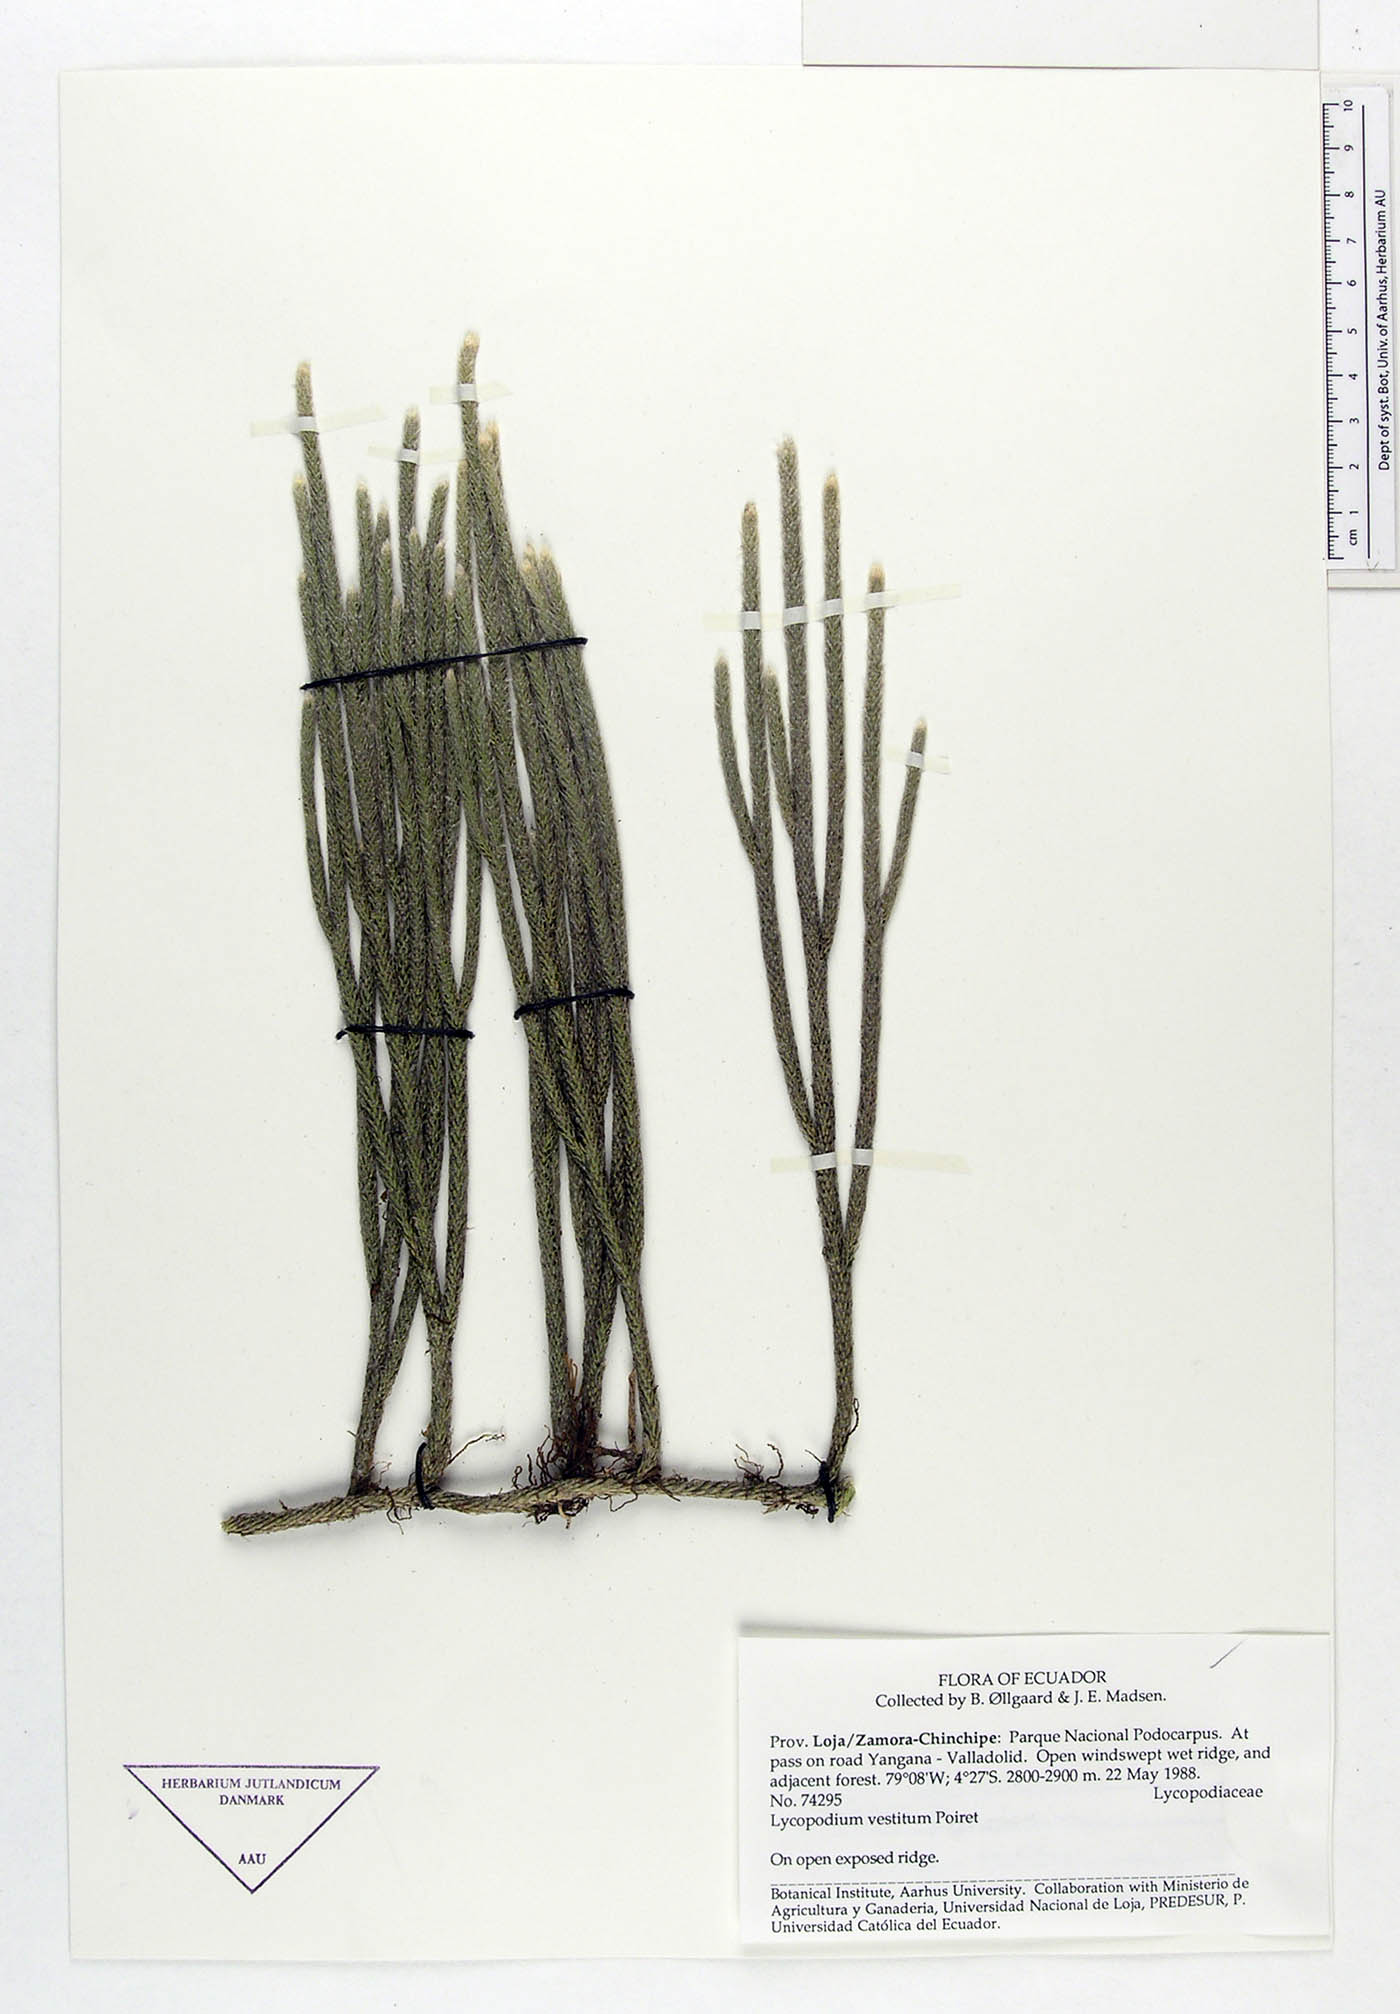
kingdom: Plantae
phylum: Tracheophyta
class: Lycopodiopsida
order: Lycopodiales
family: Lycopodiaceae
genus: Lycopodium
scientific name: Lycopodium vestitum
